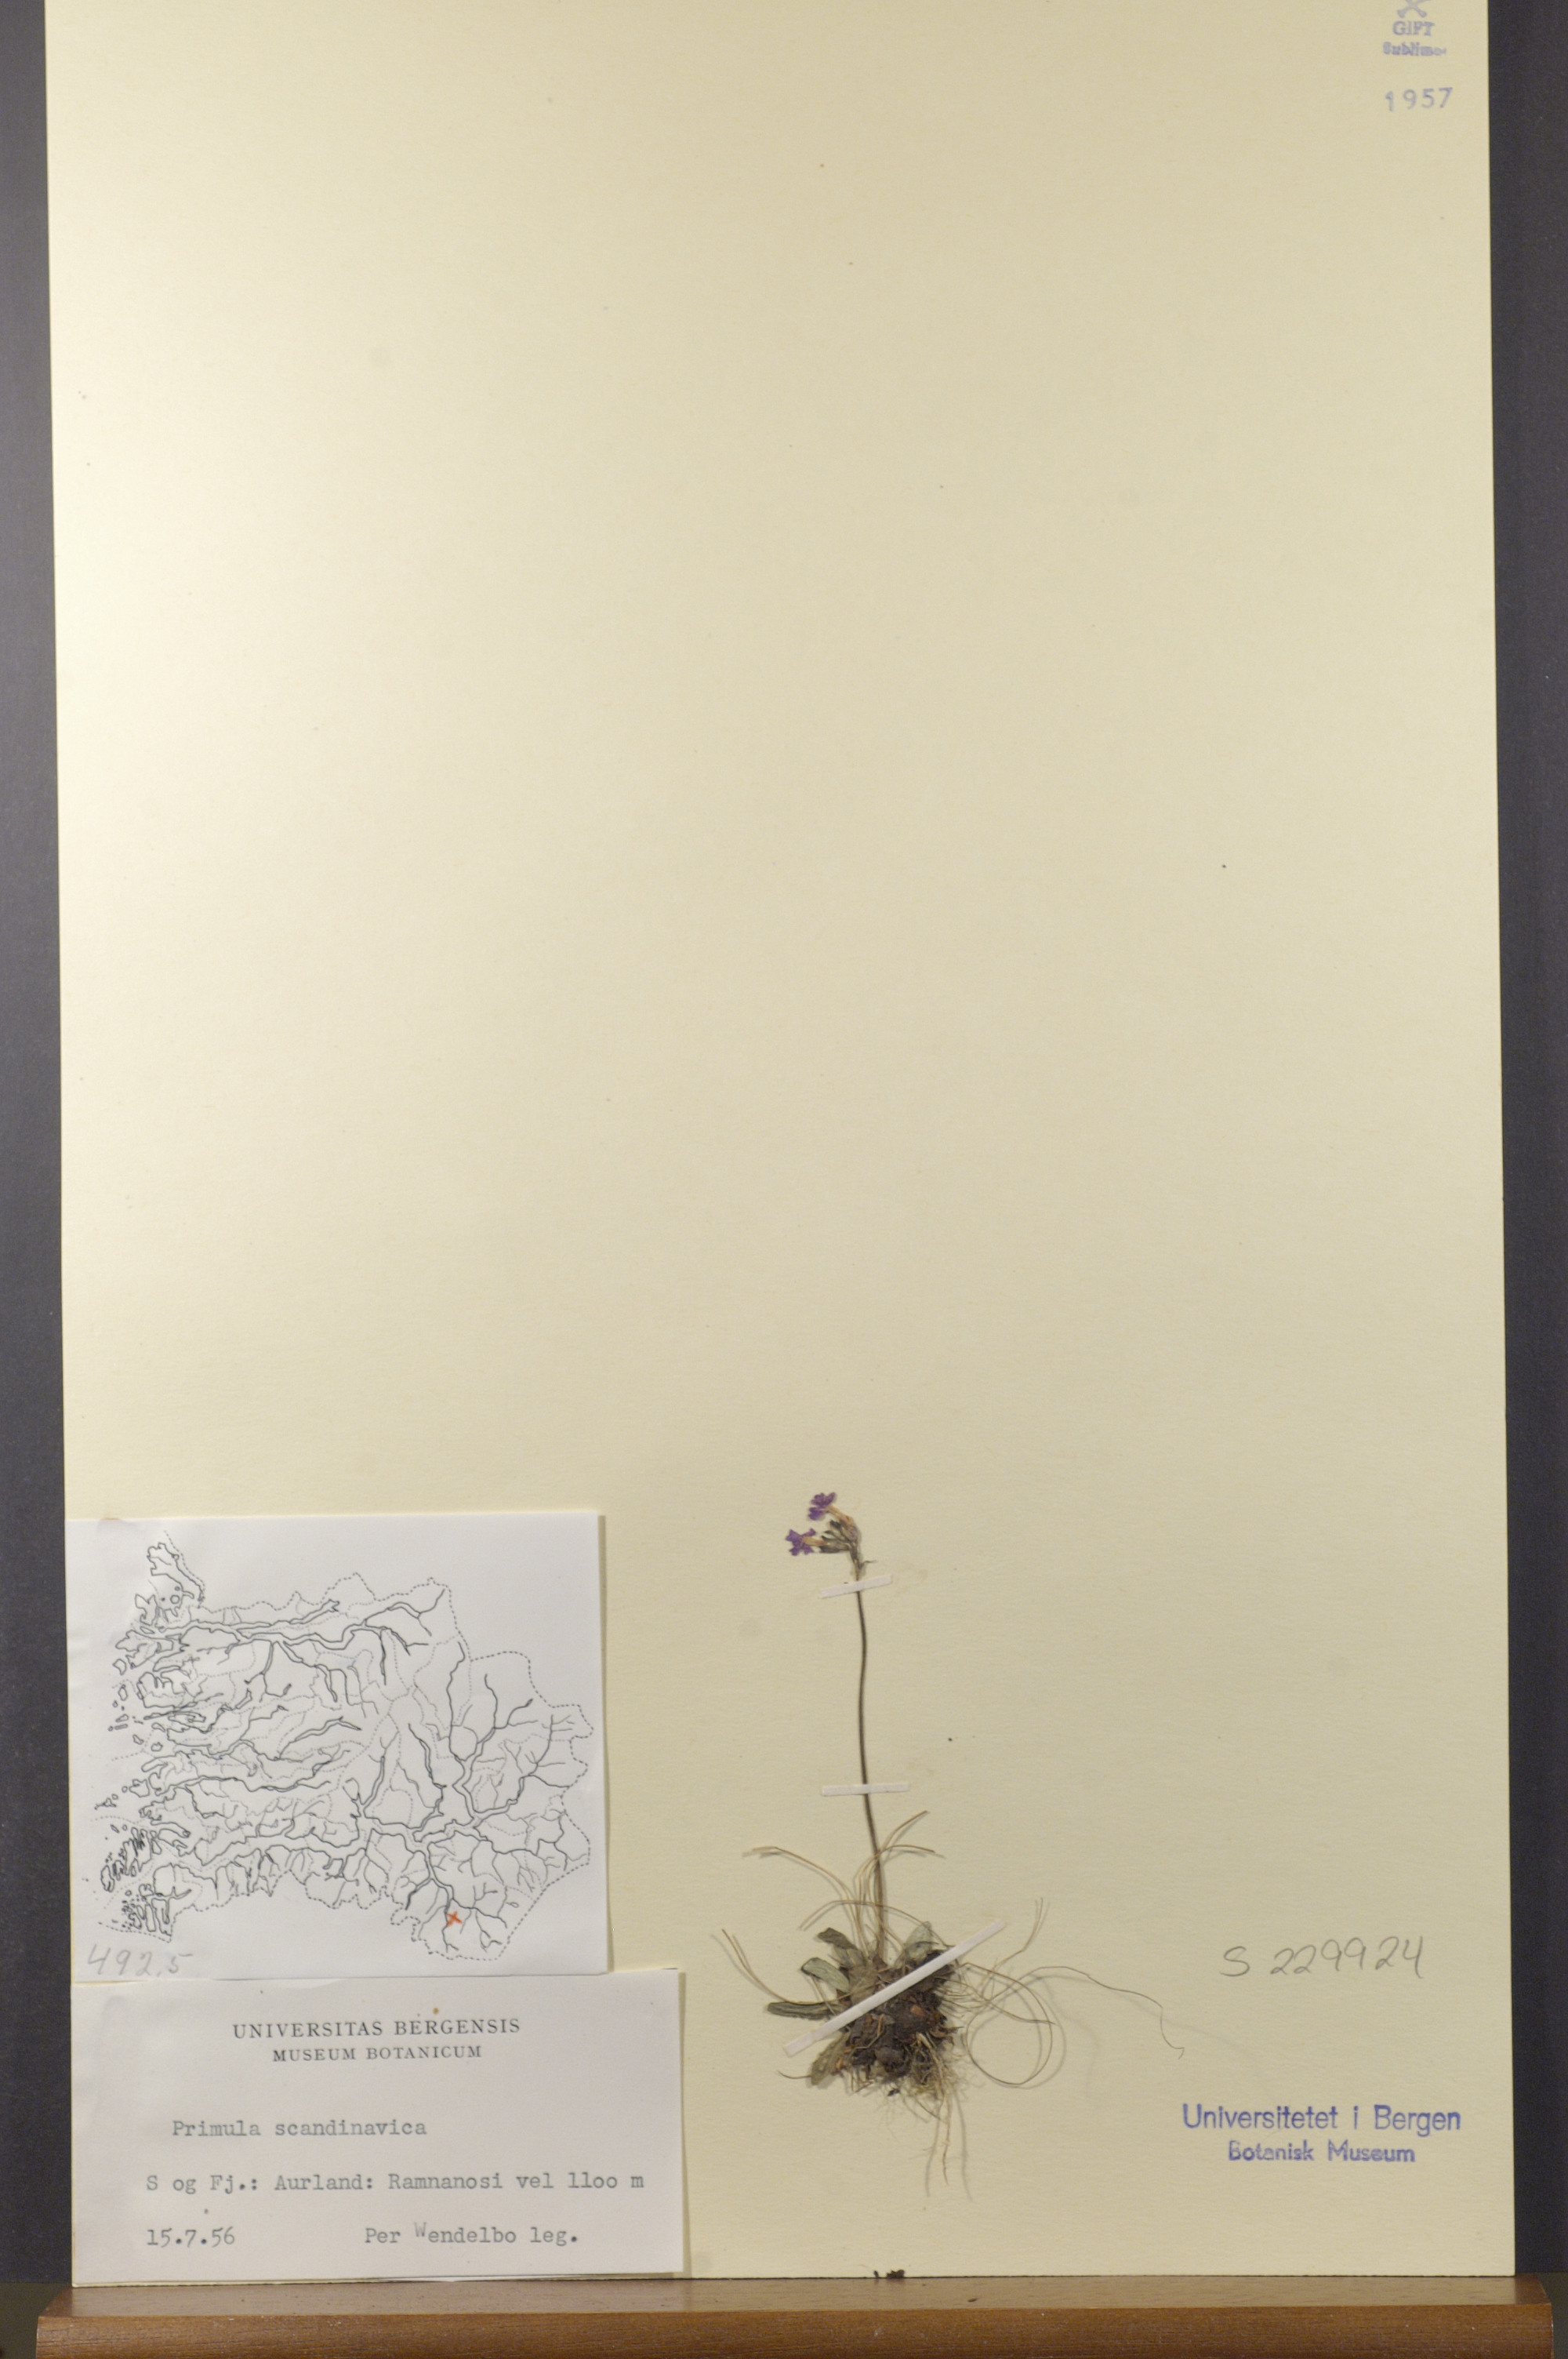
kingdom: Plantae
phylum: Tracheophyta
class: Magnoliopsida
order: Ericales
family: Primulaceae
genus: Primula
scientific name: Primula scandinavica
